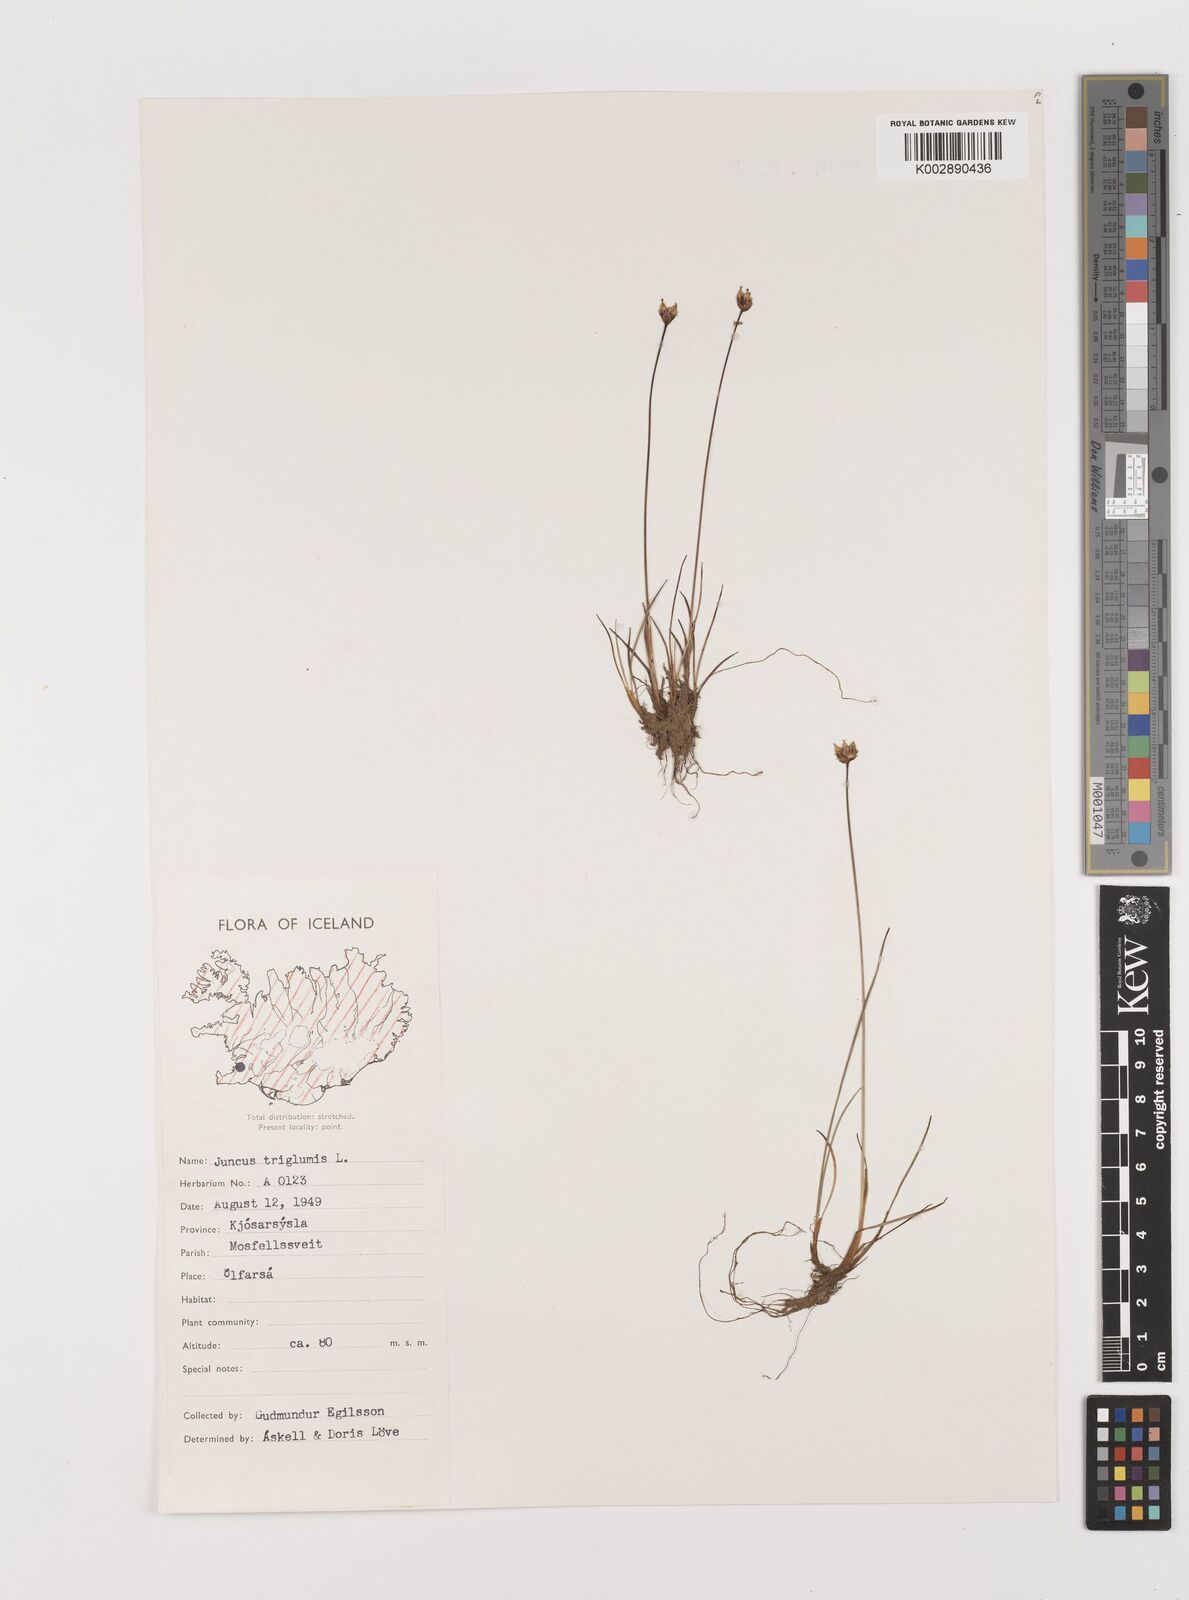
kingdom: Plantae
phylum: Tracheophyta
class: Liliopsida
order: Poales
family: Juncaceae
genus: Juncus
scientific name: Juncus triglumis
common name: Three-flowered rush
